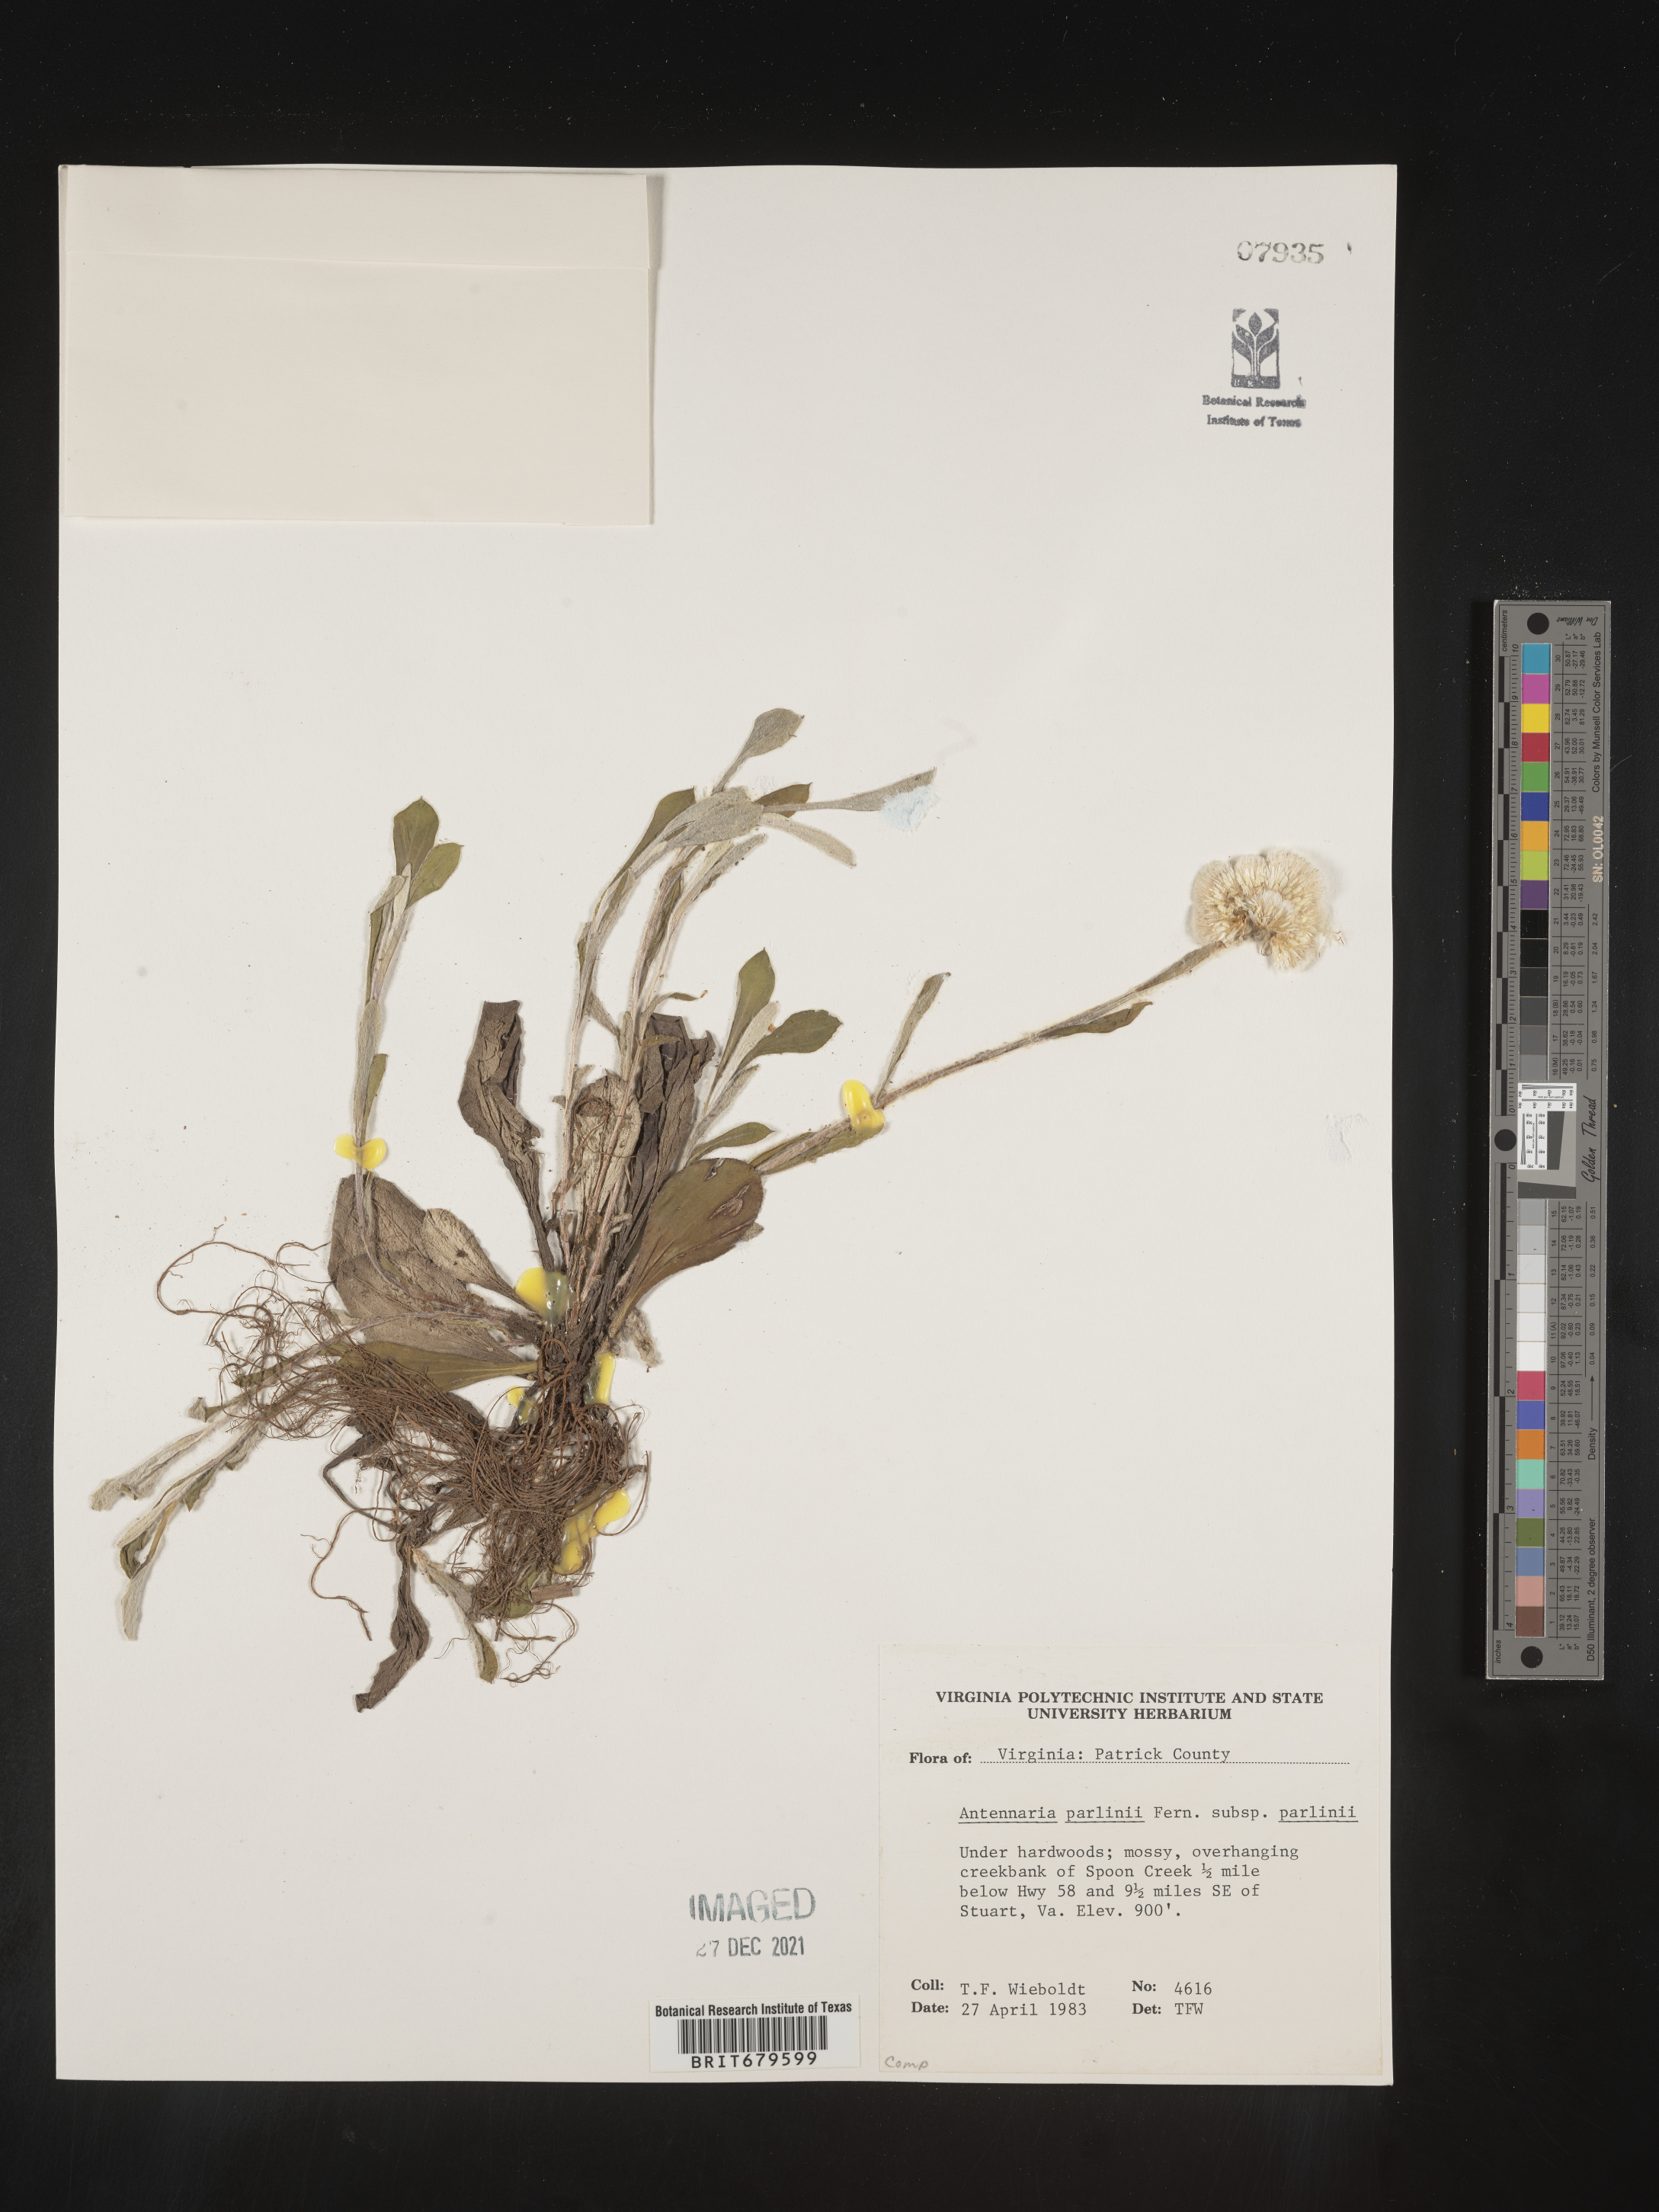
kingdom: Plantae
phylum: Tracheophyta
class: Magnoliopsida
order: Asterales
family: Asteraceae
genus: Antennaria
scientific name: Antennaria parlinii
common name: Parlin's pussytoes
